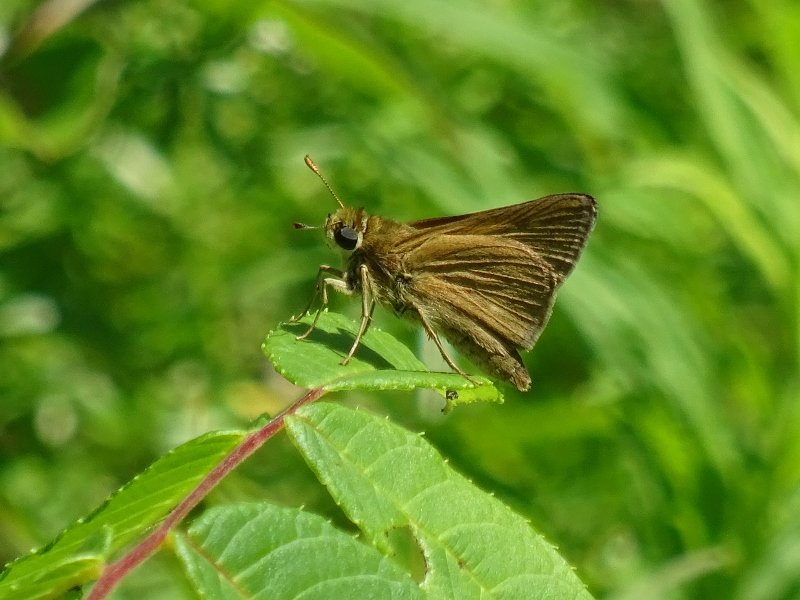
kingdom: Animalia
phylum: Arthropoda
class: Insecta
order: Lepidoptera
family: Hesperiidae
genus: Polites
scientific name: Polites
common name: Crossline Skipper
